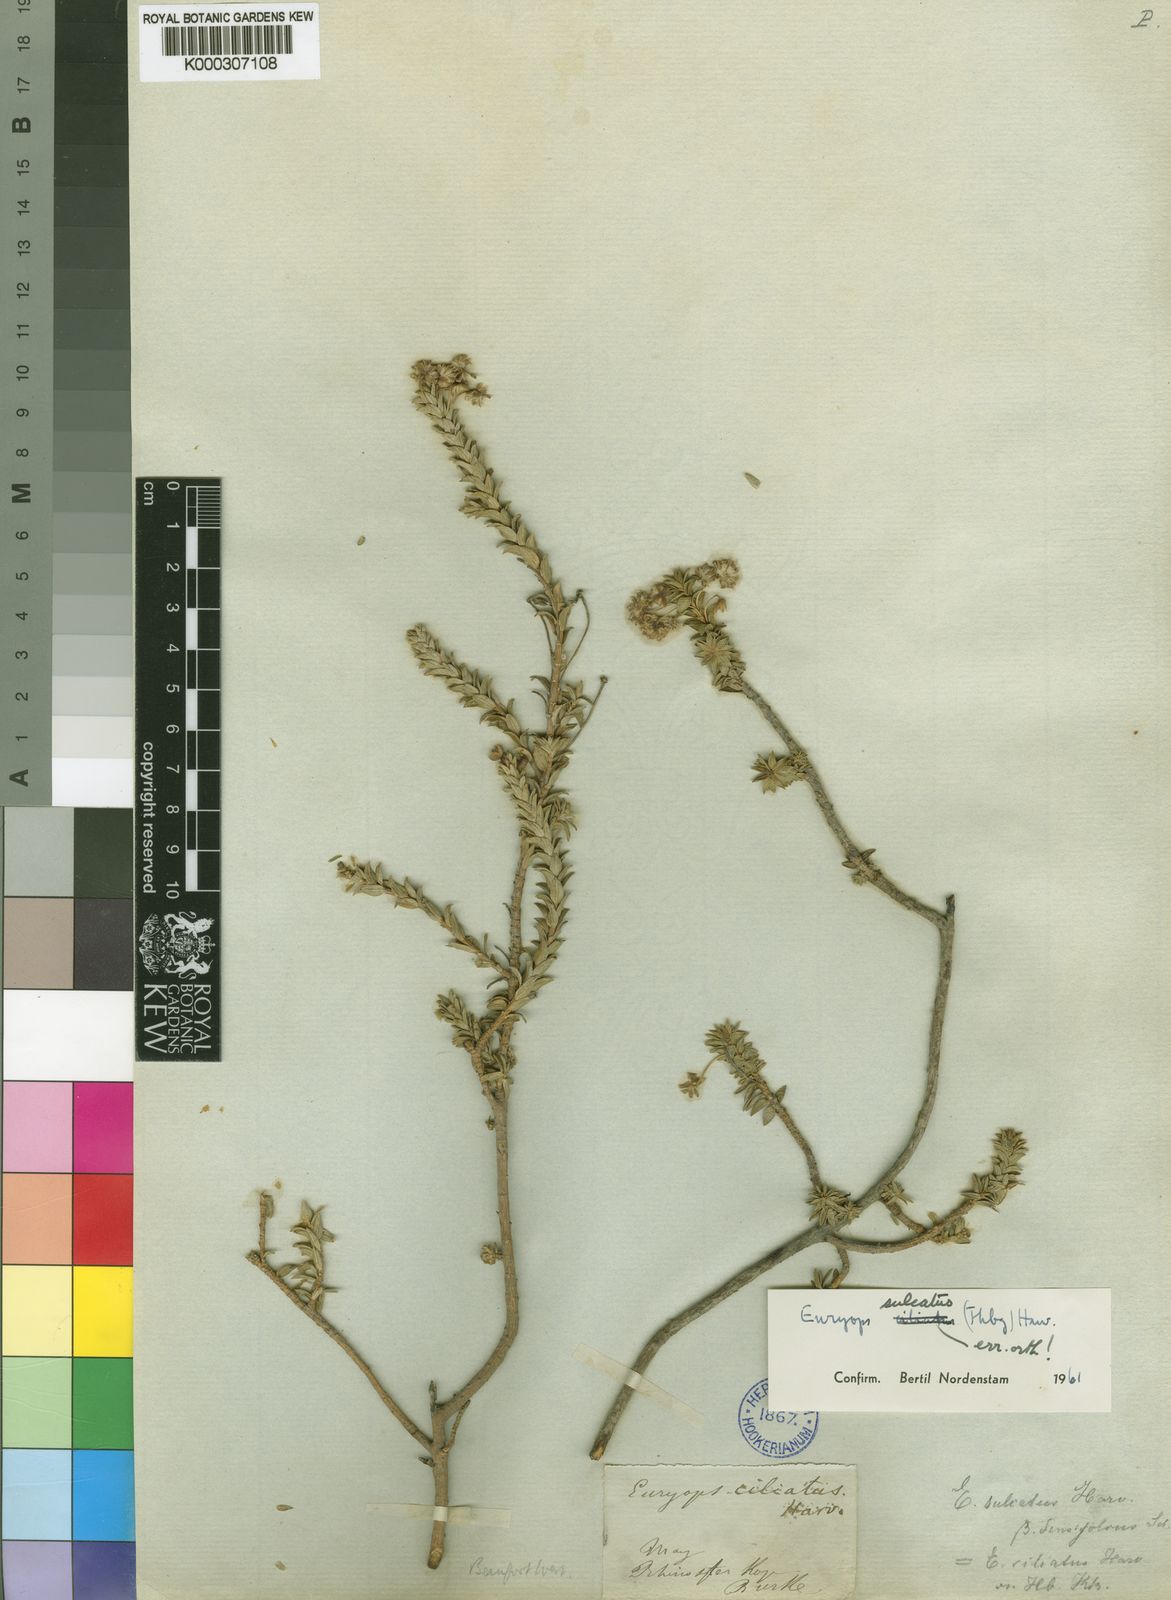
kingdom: Plantae
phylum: Tracheophyta
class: Magnoliopsida
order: Asterales
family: Asteraceae
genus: Euryops
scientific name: Euryops
